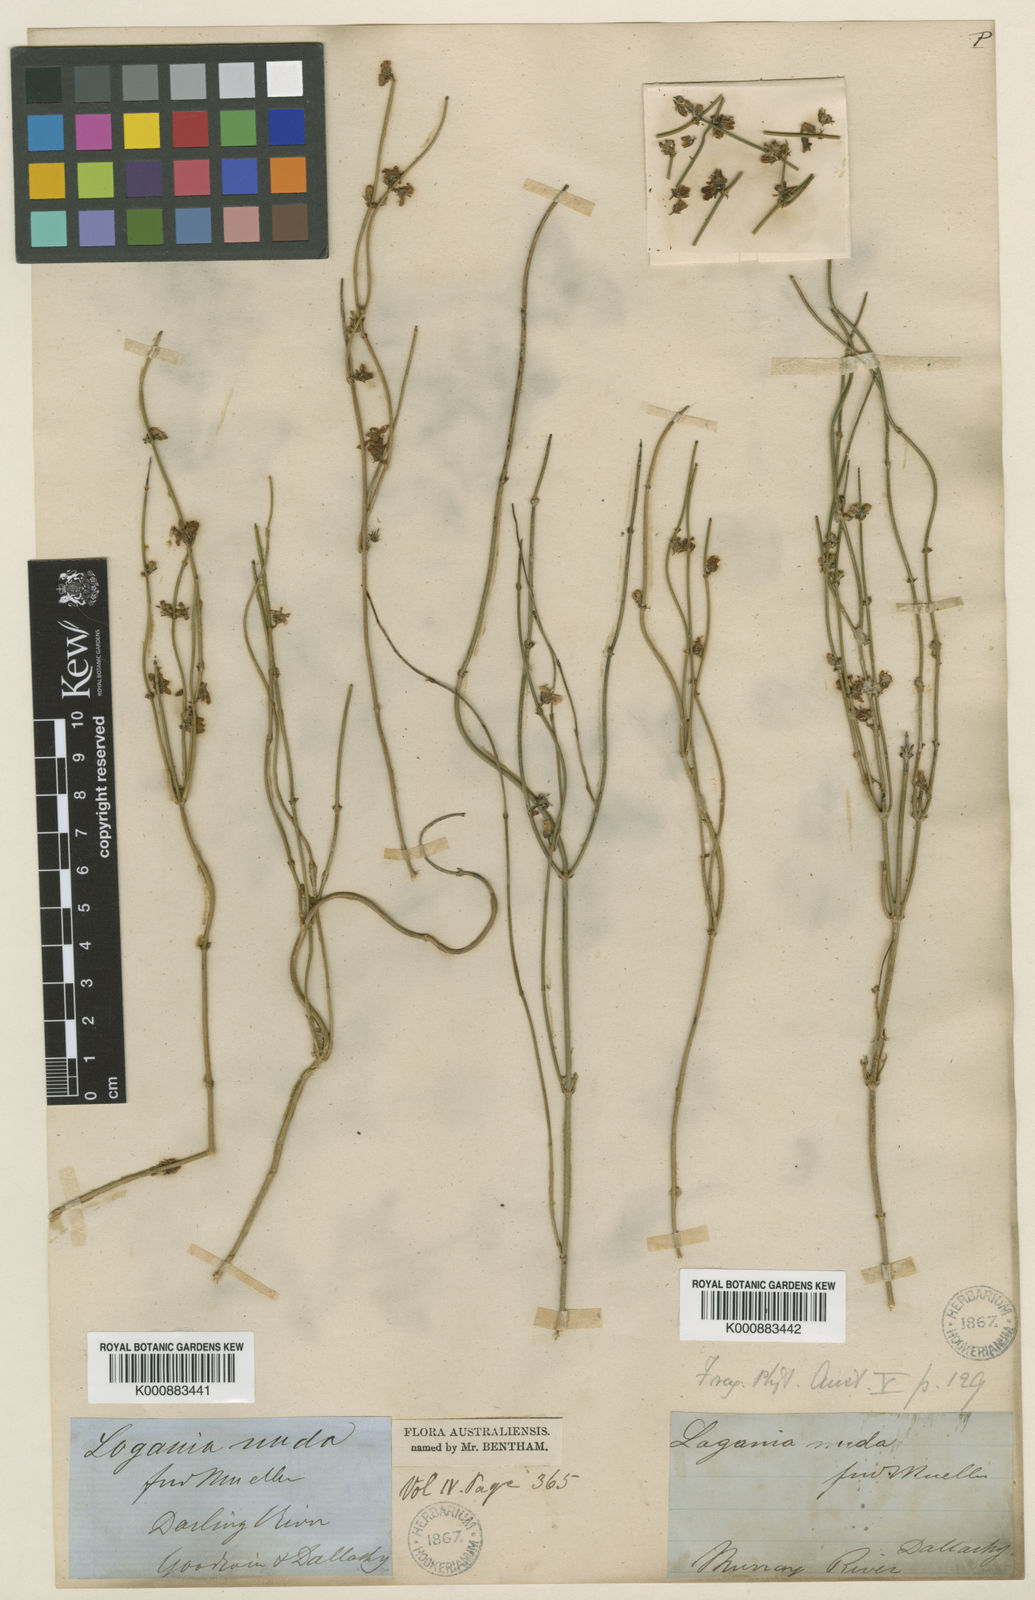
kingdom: Plantae
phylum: Tracheophyta
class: Magnoliopsida
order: Gentianales
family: Loganiaceae
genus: Orianthera
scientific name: Orianthera nuda
